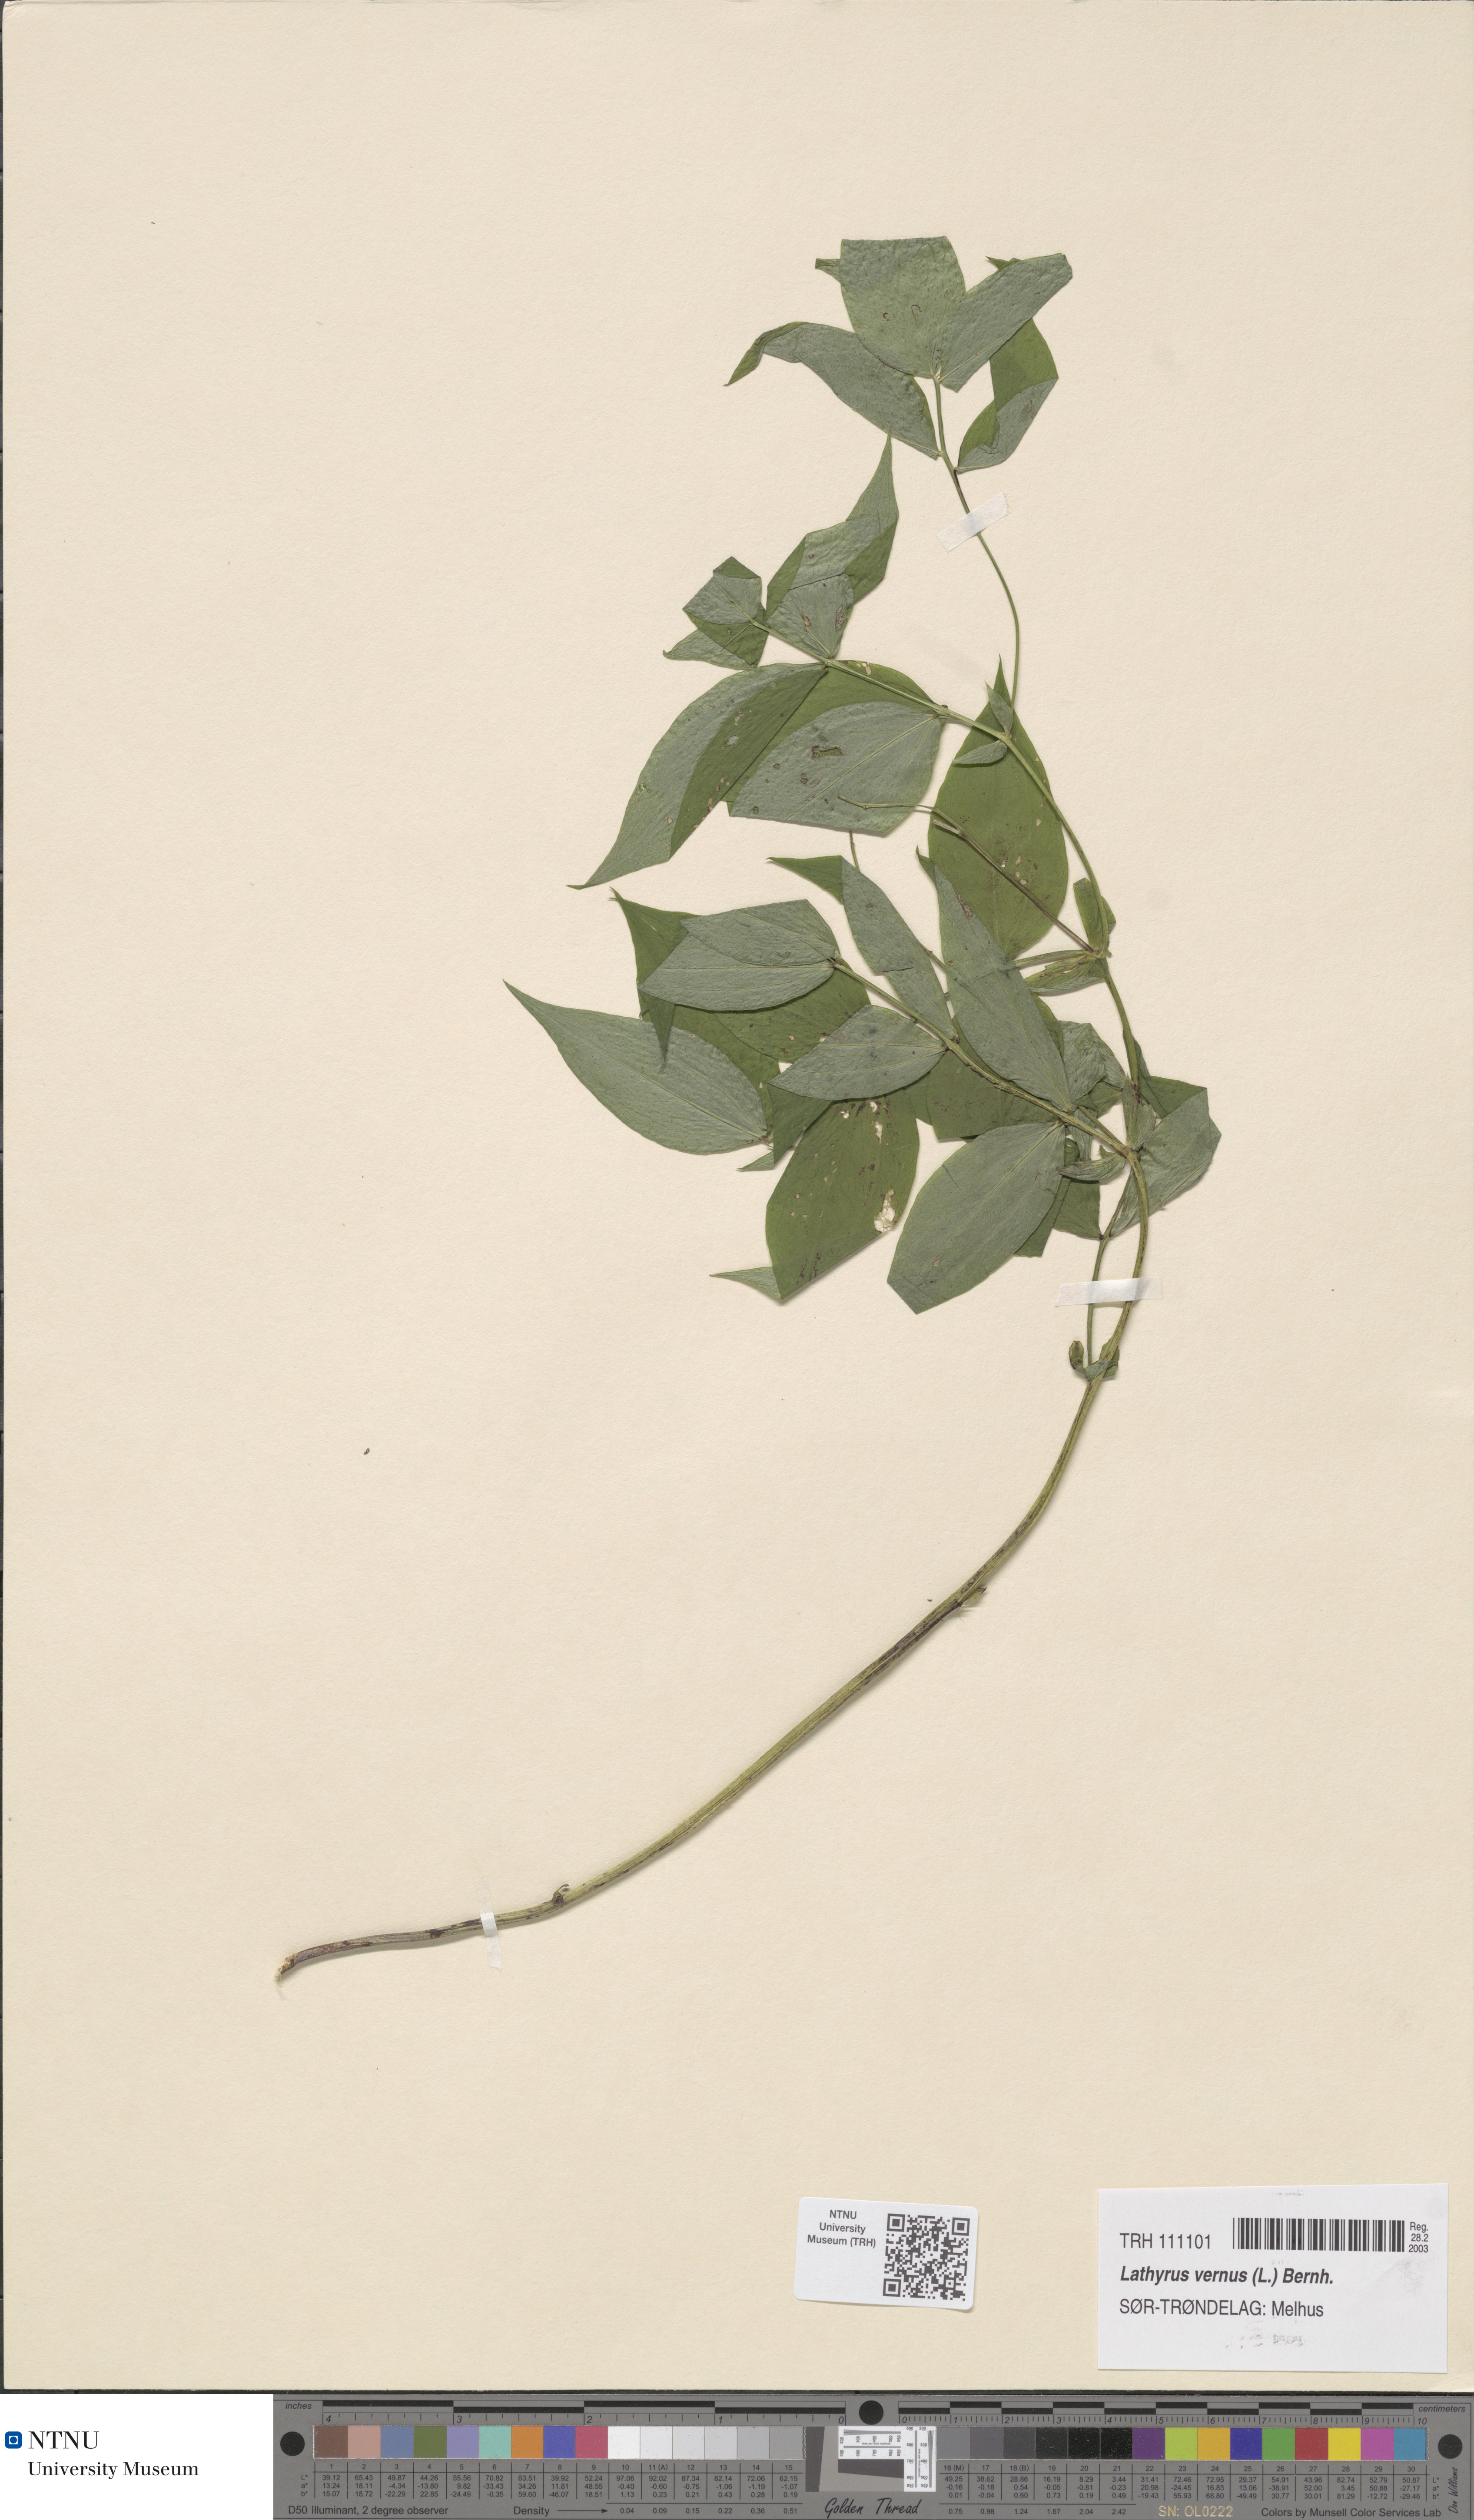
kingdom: Plantae
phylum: Tracheophyta
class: Magnoliopsida
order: Fabales
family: Fabaceae
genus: Lathyrus
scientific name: Lathyrus vernus
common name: Spring pea
